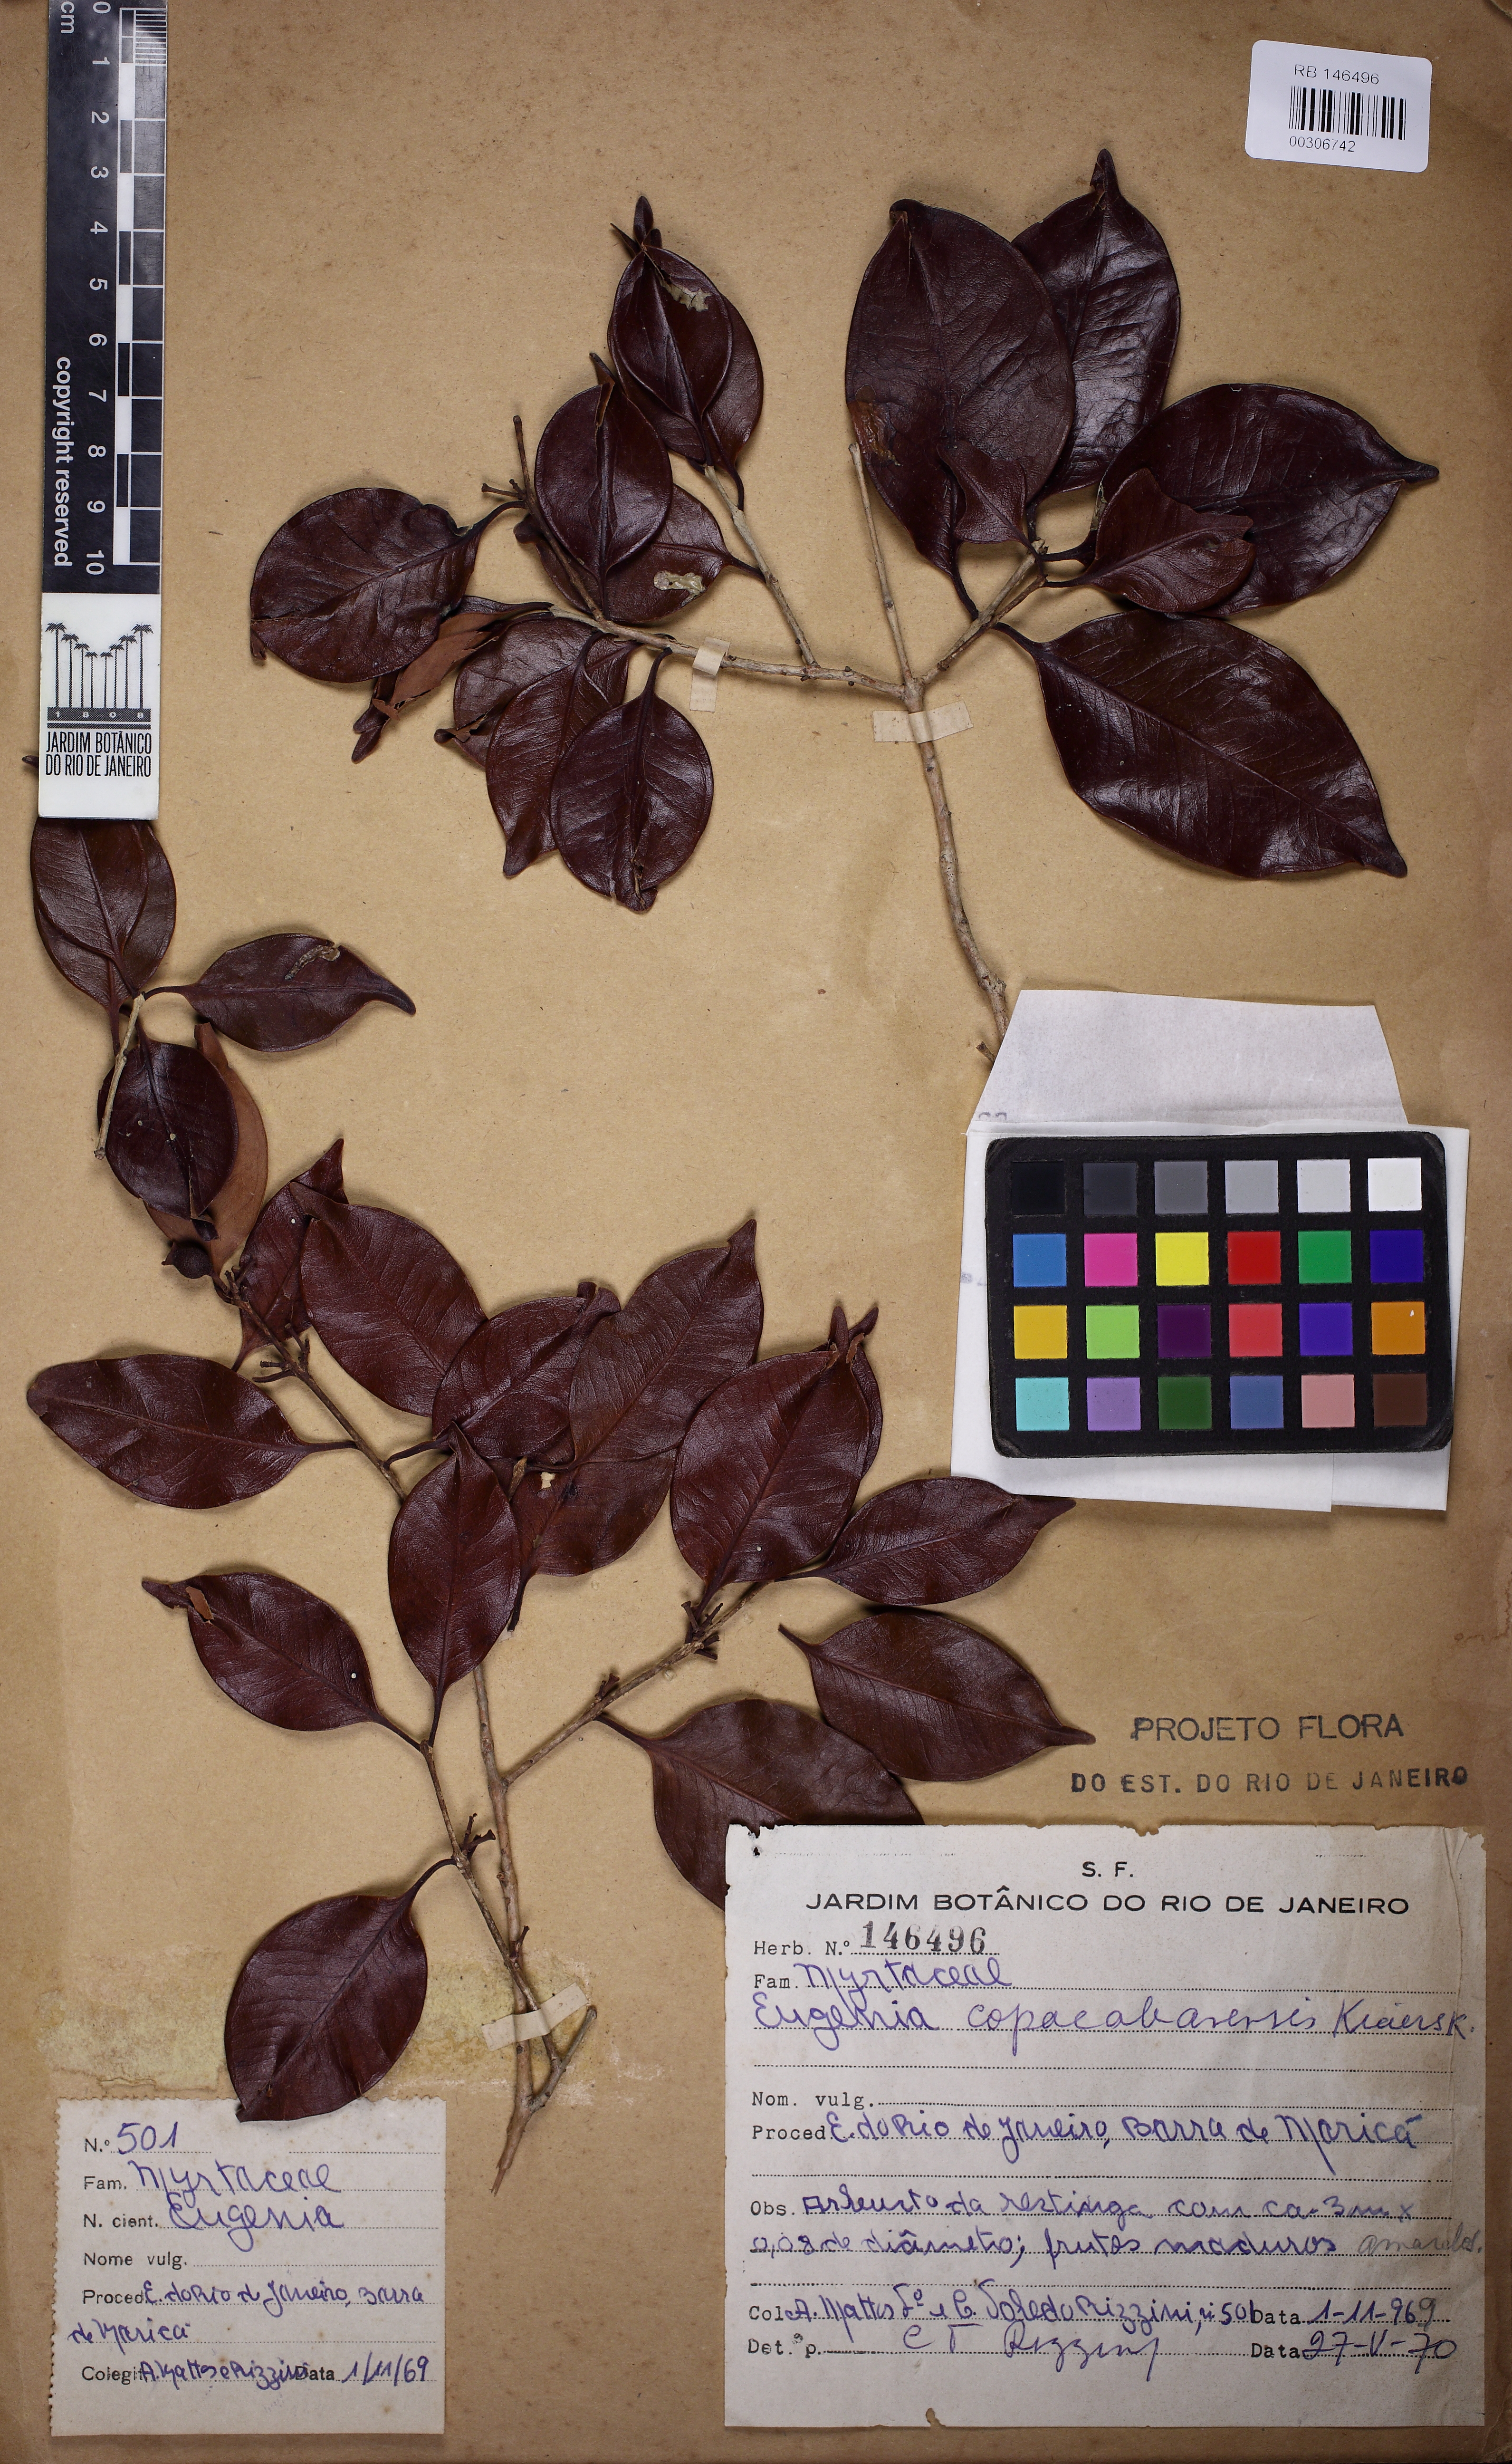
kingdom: Plantae
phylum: Tracheophyta
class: Magnoliopsida
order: Myrtales
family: Myrtaceae
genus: Eugenia
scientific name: Eugenia copacabanensis
